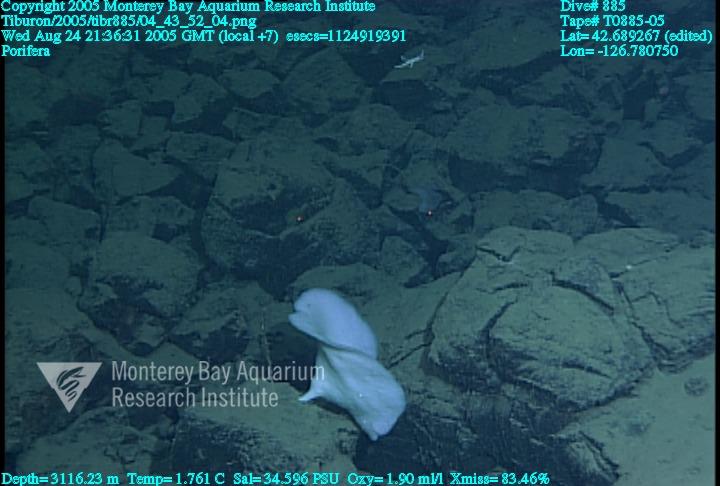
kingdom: Animalia
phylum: Porifera
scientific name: Porifera
